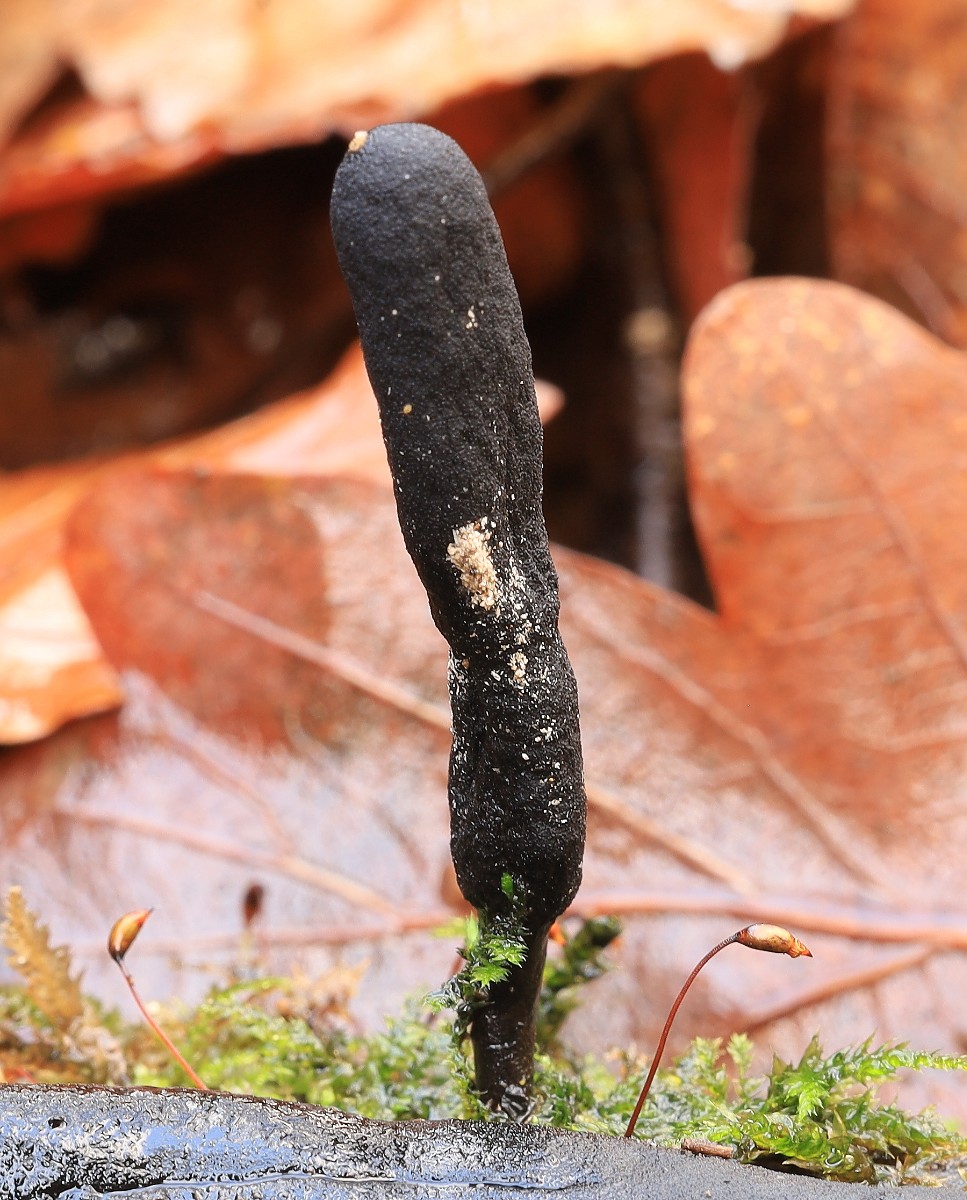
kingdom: Fungi
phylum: Ascomycota
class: Sordariomycetes
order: Xylariales
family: Xylariaceae
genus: Xylaria
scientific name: Xylaria longipes
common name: slank stødsvamp
